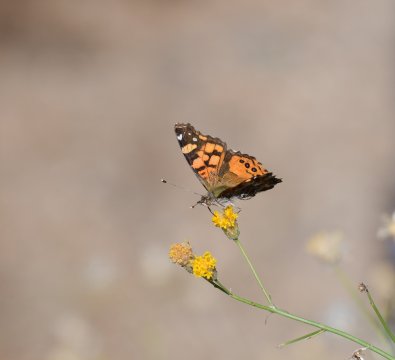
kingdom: Animalia
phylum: Arthropoda
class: Insecta
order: Lepidoptera
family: Nymphalidae
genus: Vanessa
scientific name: Vanessa annabella
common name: West Coast Lady
